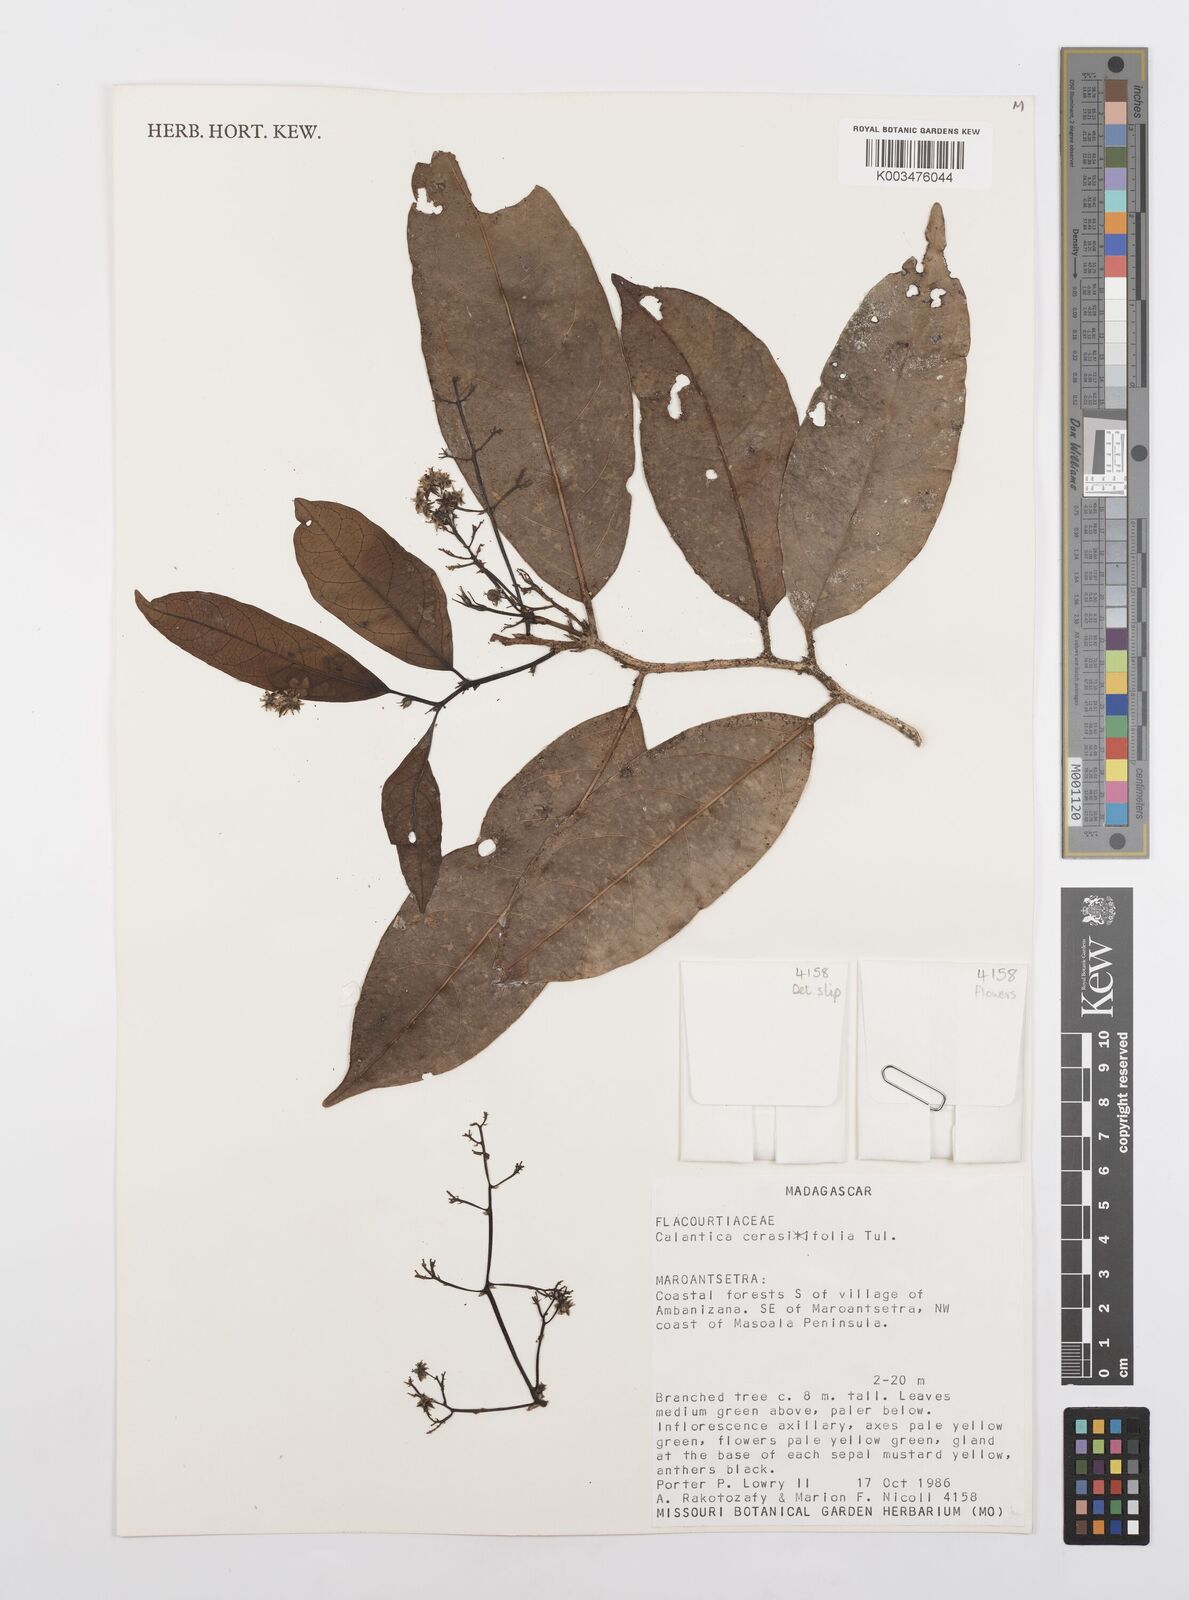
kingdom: Plantae
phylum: Tracheophyta
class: Magnoliopsida
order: Malpighiales
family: Salicaceae
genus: Calantica
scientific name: Calantica cerasifolia
